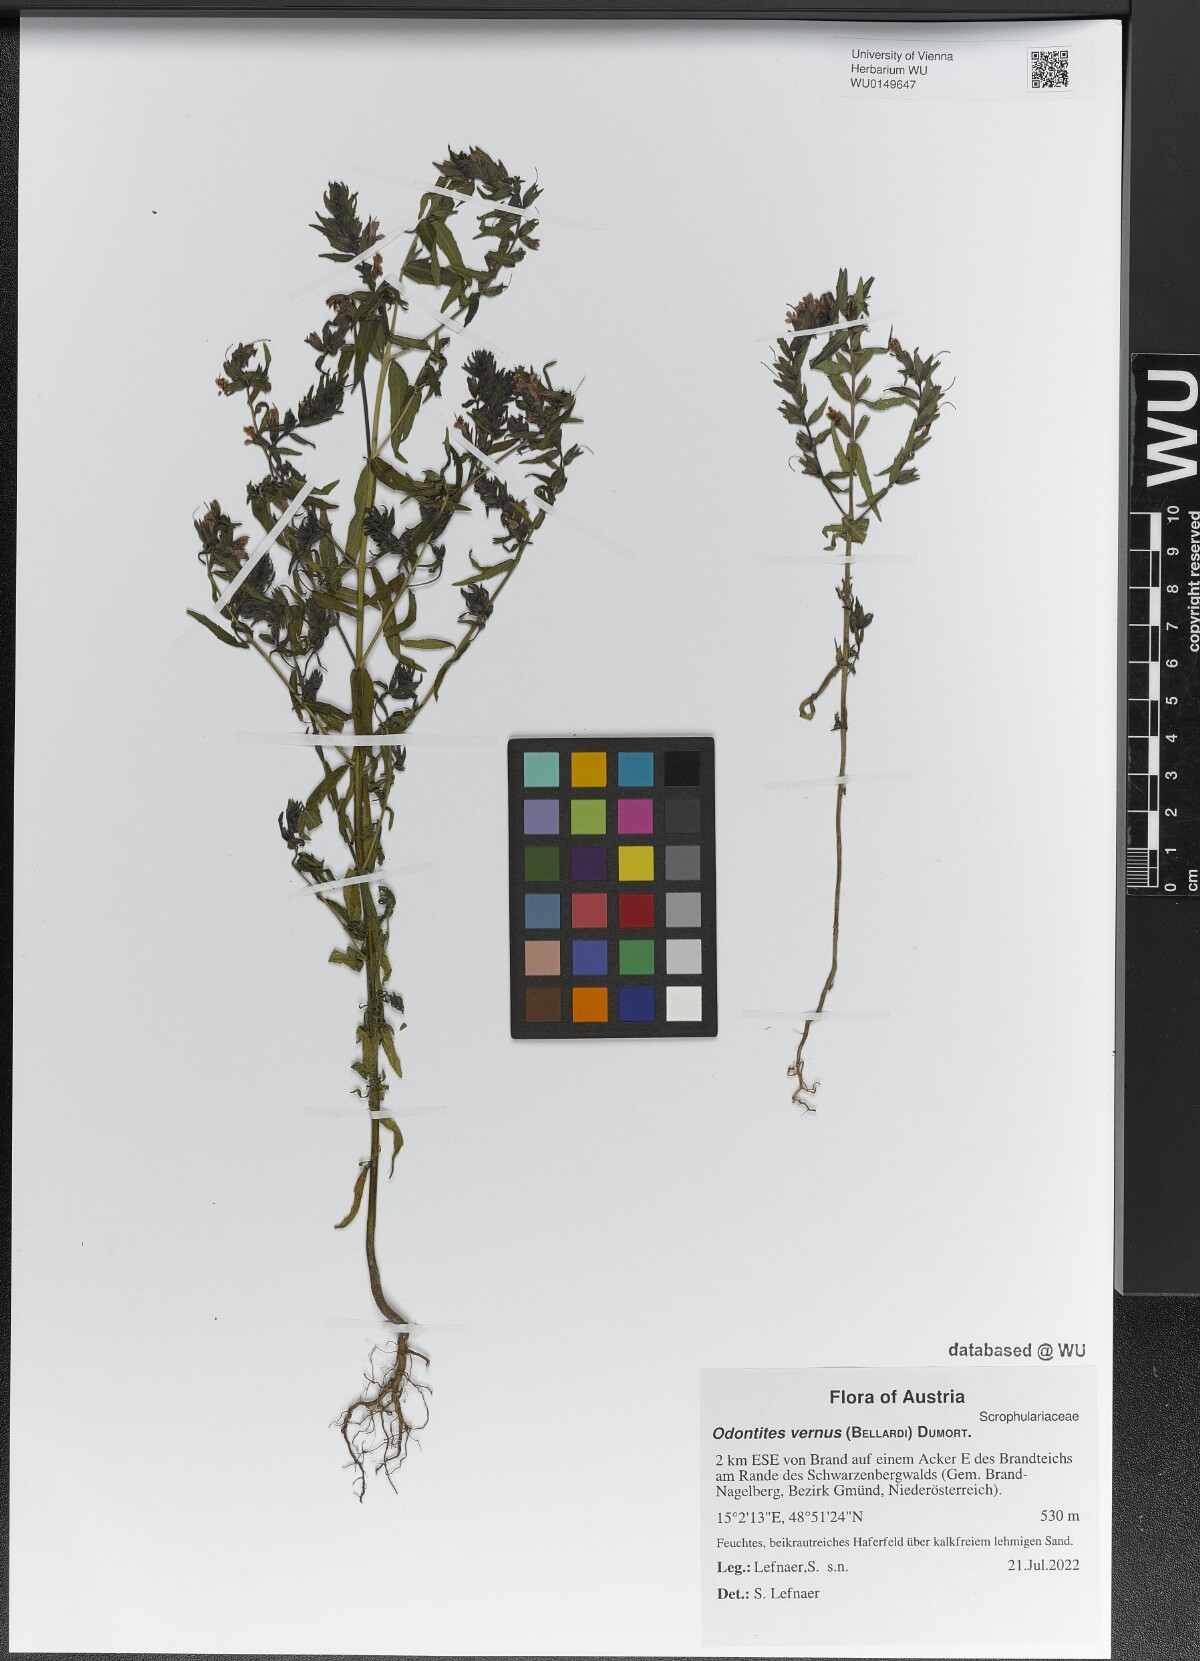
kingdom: Plantae
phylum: Tracheophyta
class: Magnoliopsida
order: Lamiales
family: Orobanchaceae
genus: Odontites
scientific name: Odontites vernus
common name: Red bartsia
